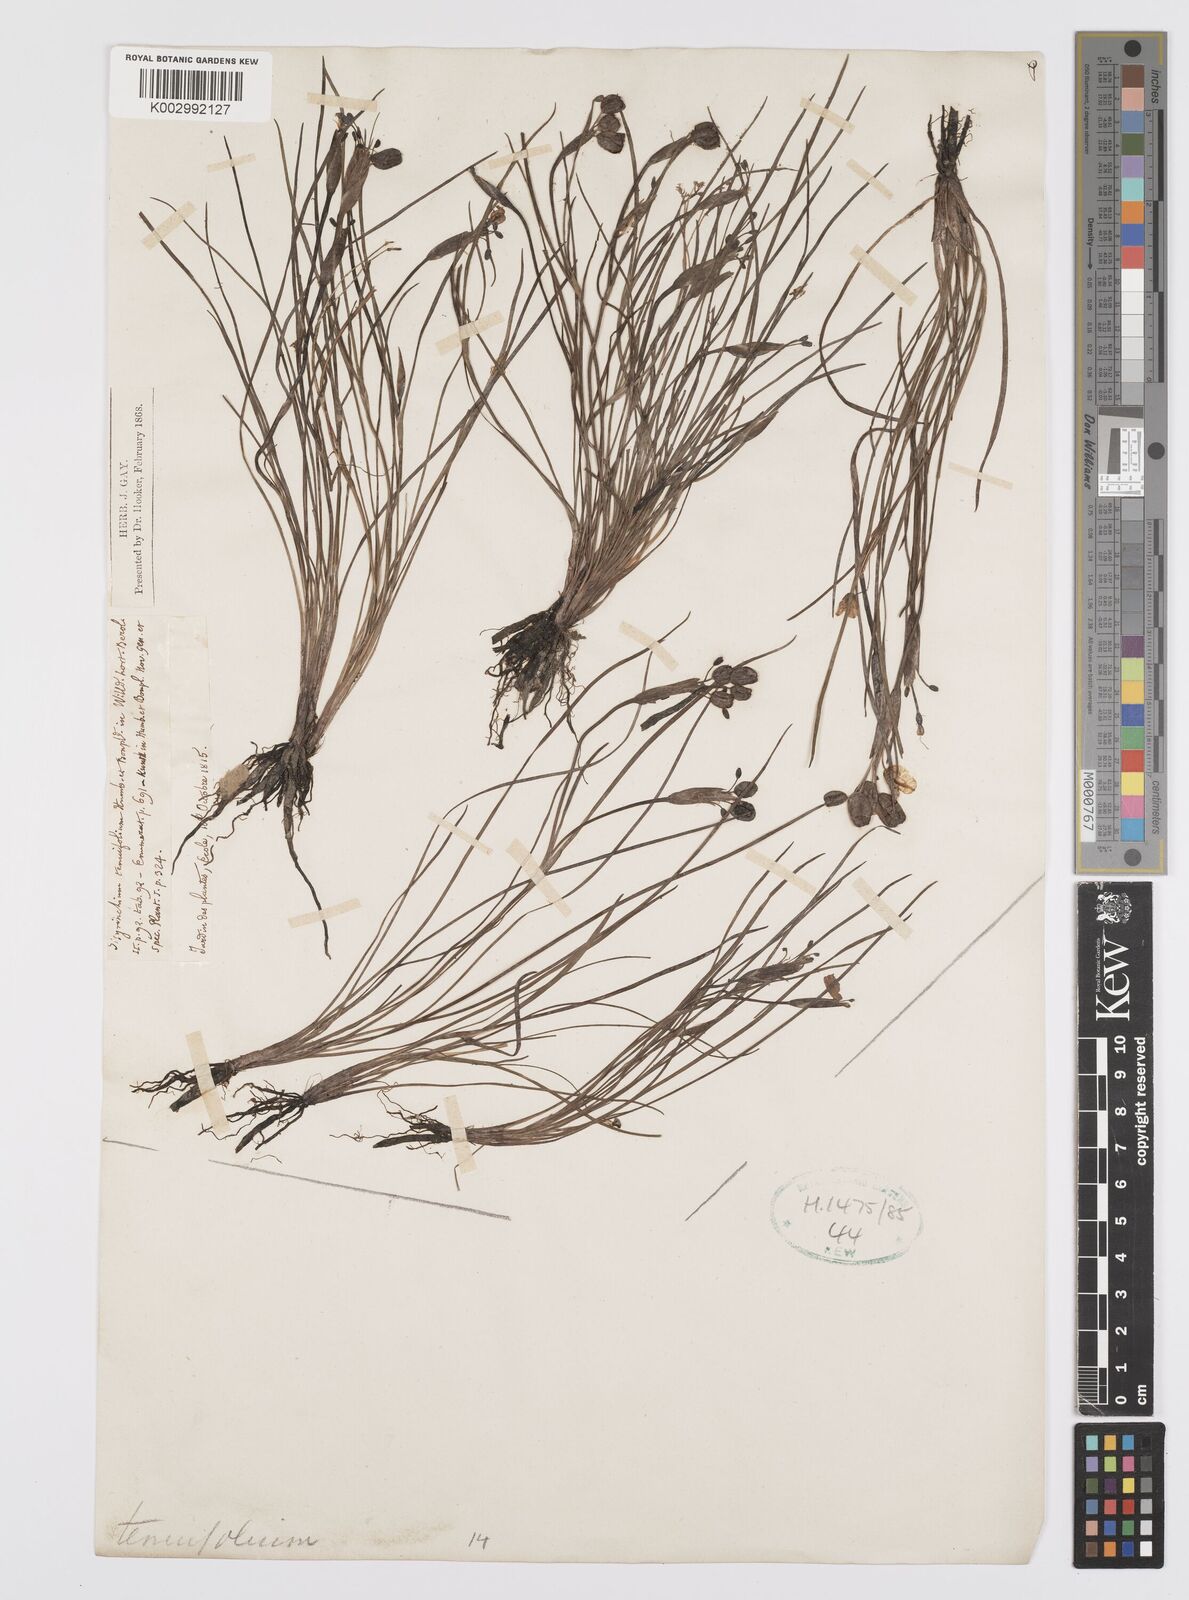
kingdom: Plantae
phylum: Tracheophyta
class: Liliopsida
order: Asparagales
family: Iridaceae
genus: Sisyrinchium
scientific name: Sisyrinchium langloisii
